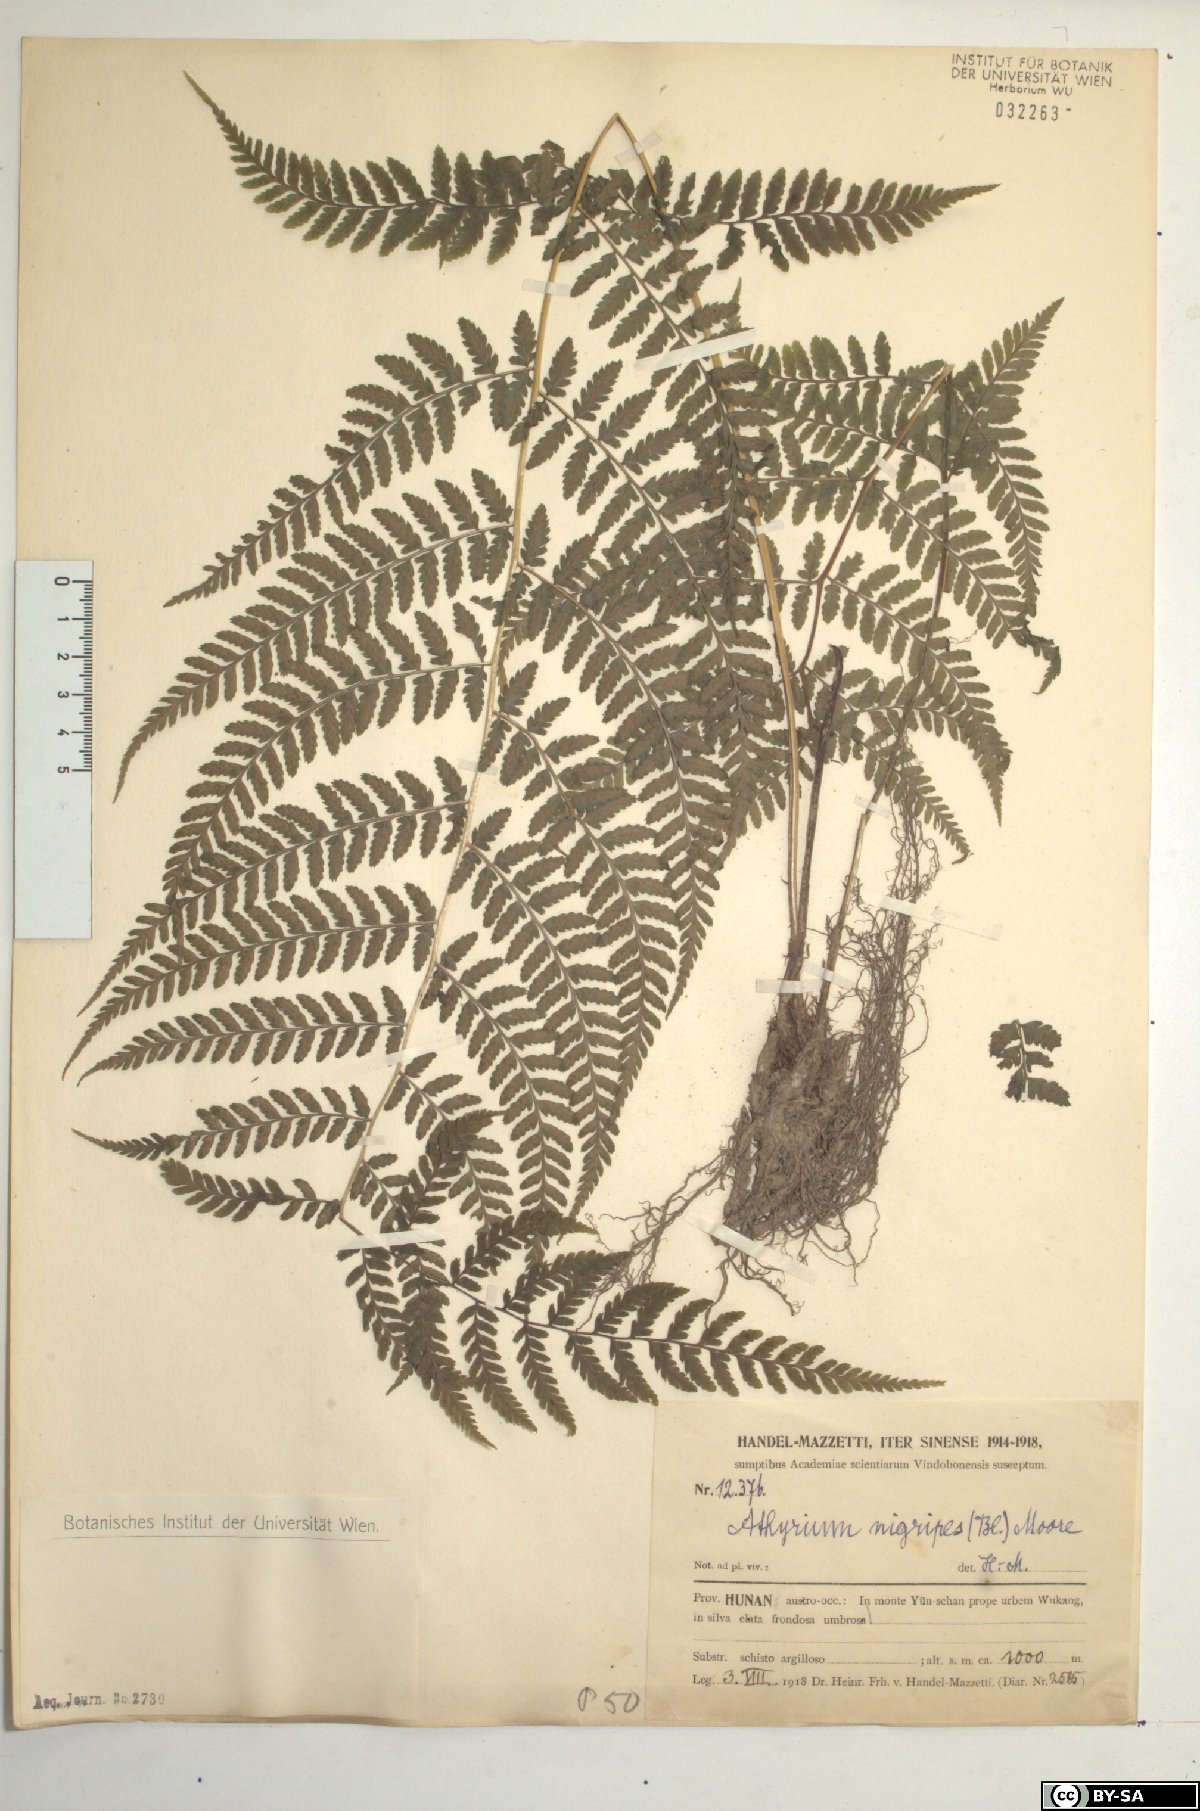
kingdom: Plantae
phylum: Tracheophyta
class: Polypodiopsida
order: Polypodiales
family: Athyriaceae
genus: Athyrium
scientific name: Athyrium nigripes
